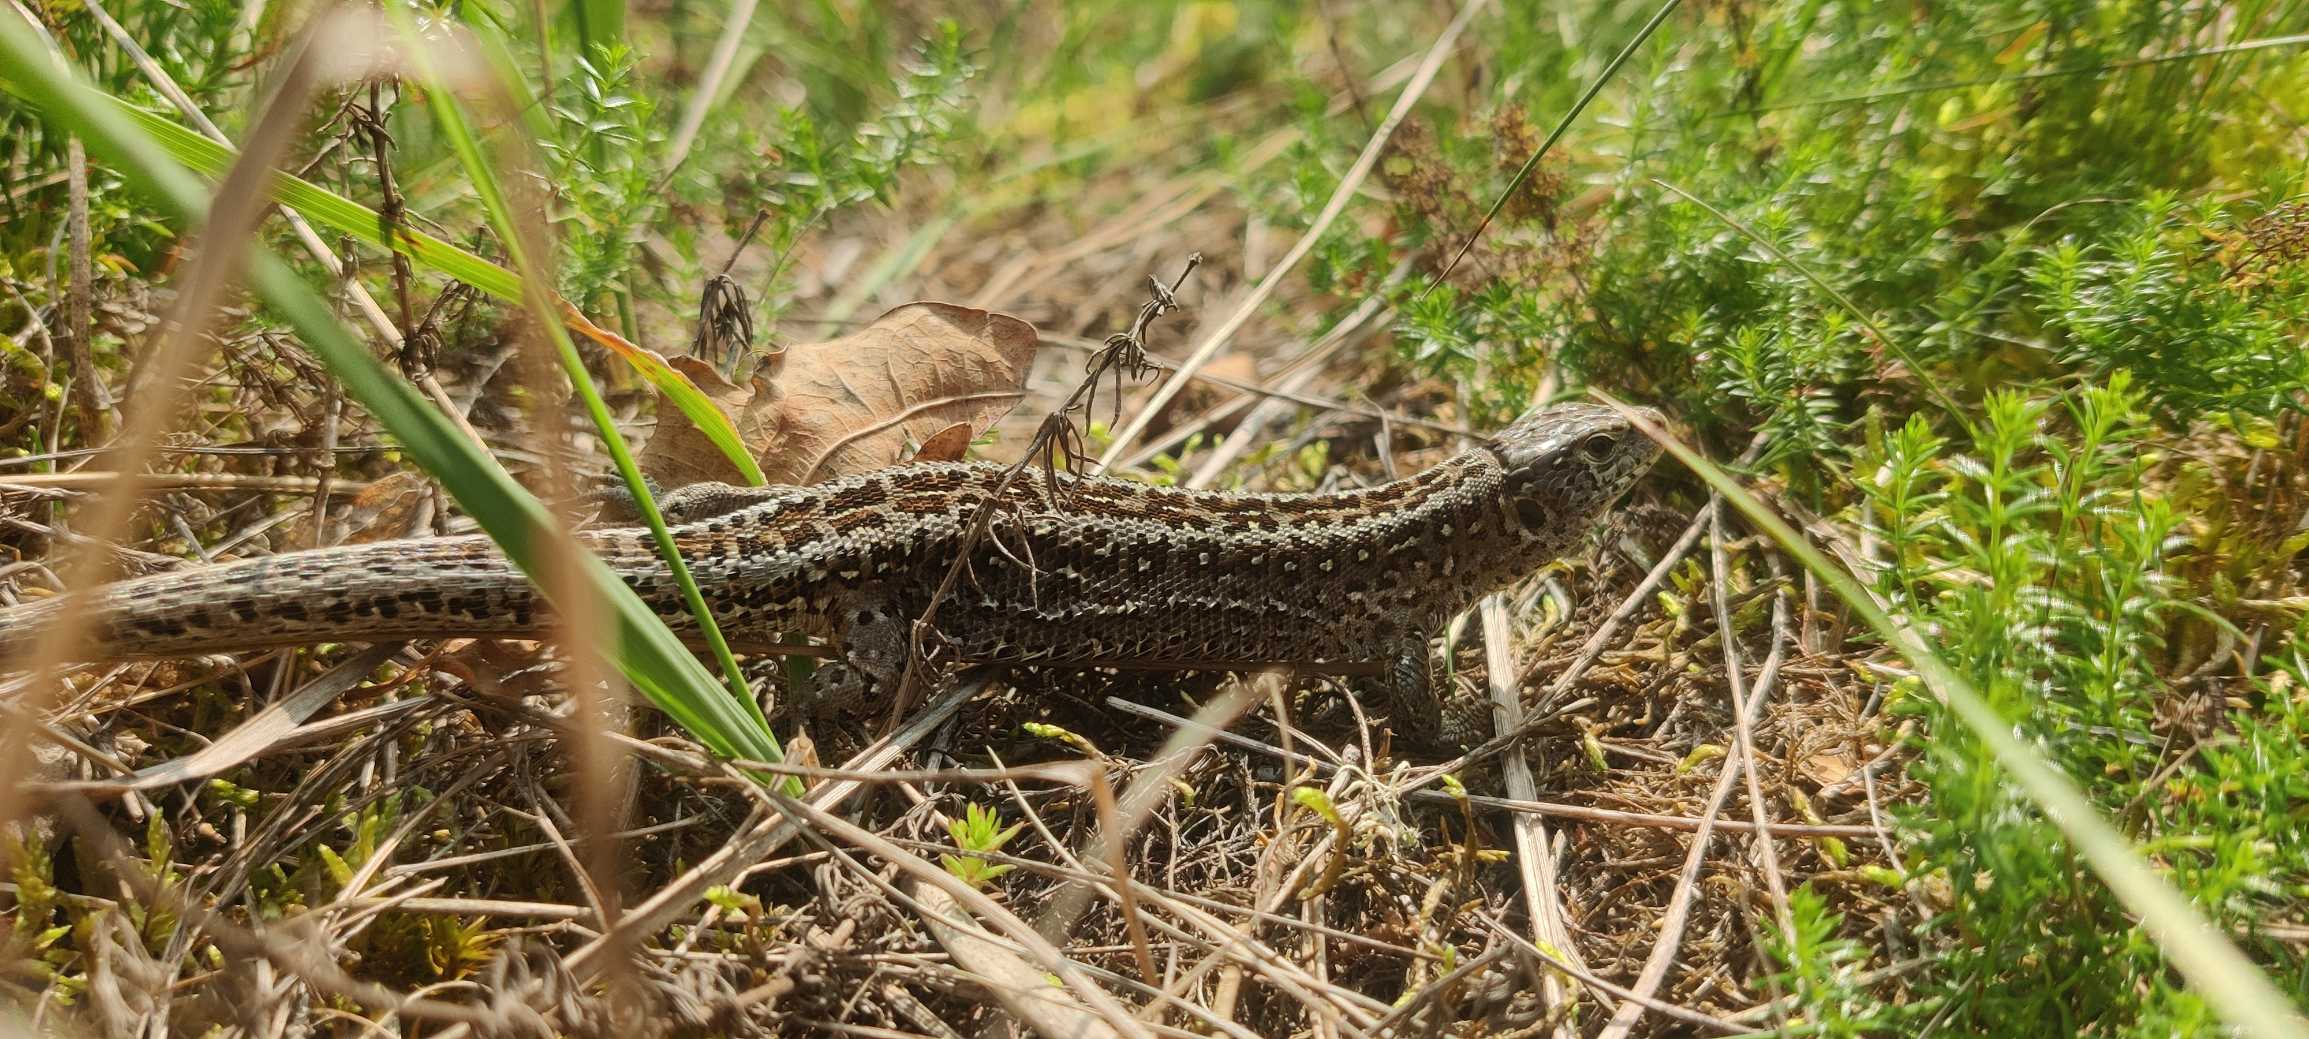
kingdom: Animalia
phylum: Chordata
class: Squamata
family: Lacertidae
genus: Lacerta
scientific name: Lacerta agilis
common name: Markfirben
